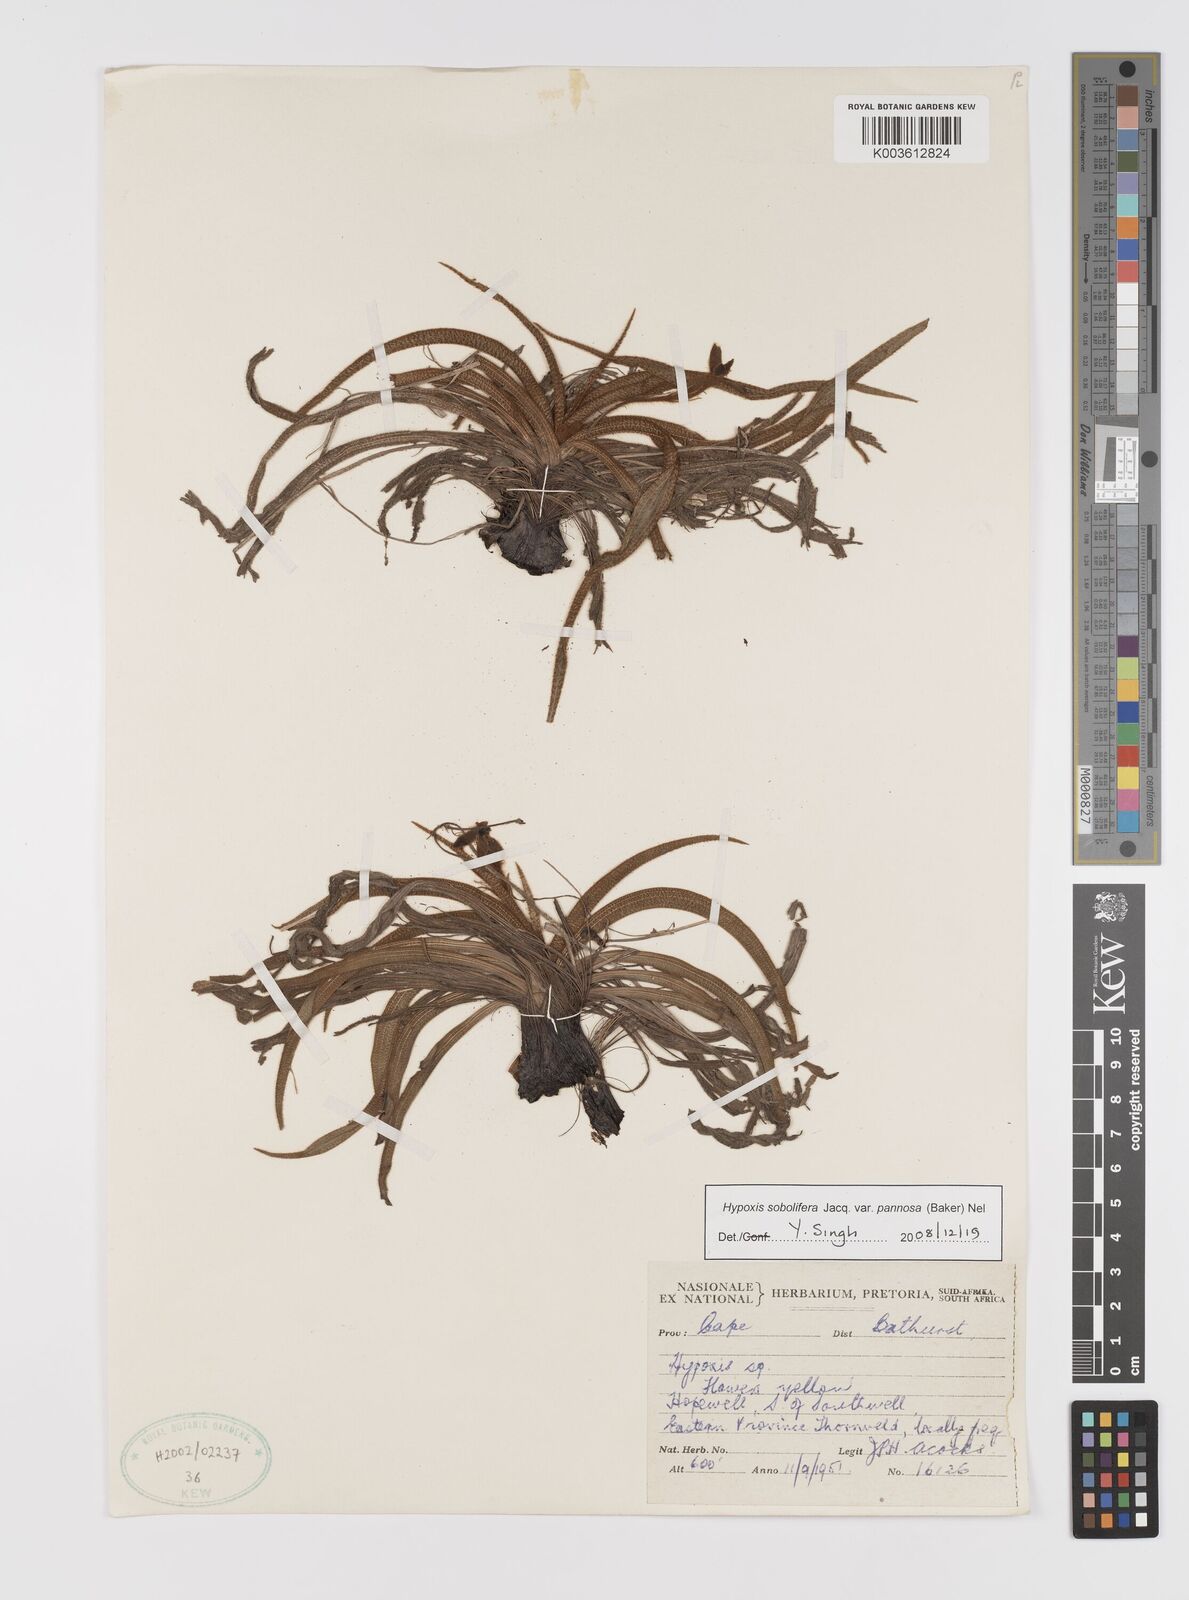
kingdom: Plantae
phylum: Tracheophyta
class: Liliopsida
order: Asparagales
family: Hypoxidaceae
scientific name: Hypoxidaceae
